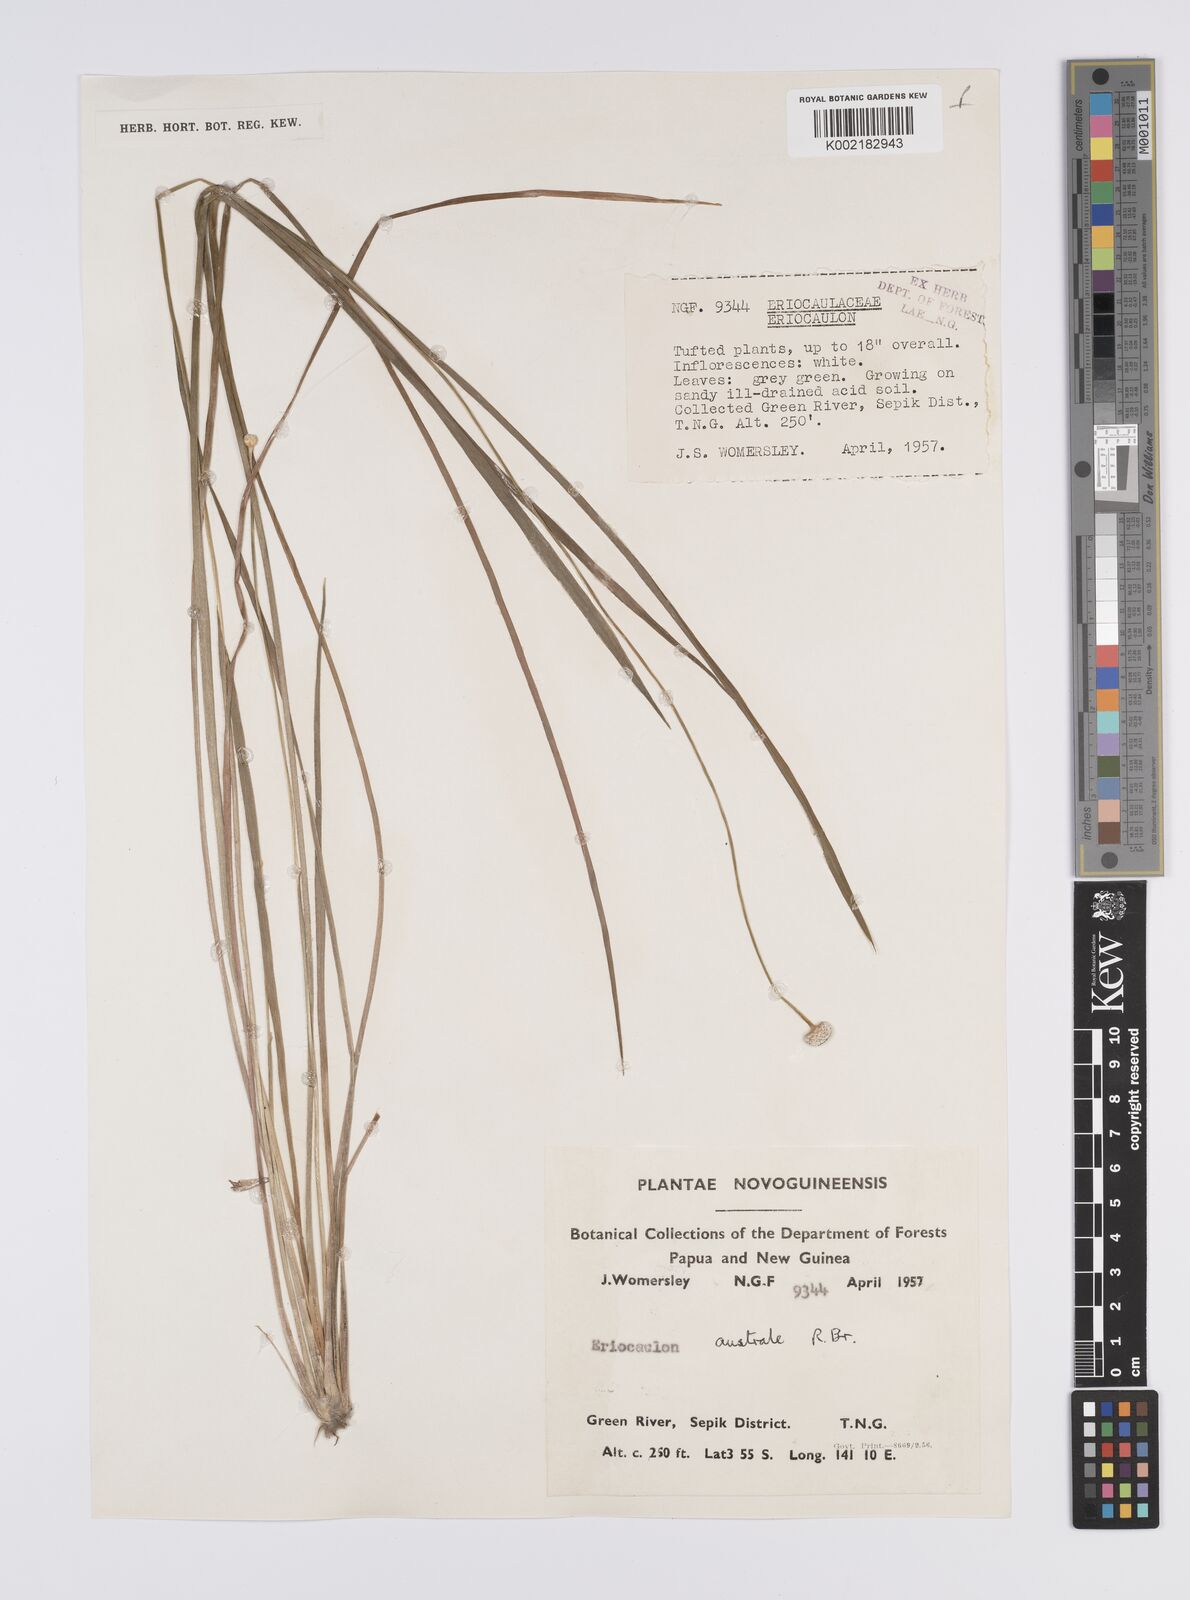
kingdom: Plantae
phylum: Tracheophyta
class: Liliopsida
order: Poales
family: Eriocaulaceae
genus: Eriocaulon
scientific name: Eriocaulon australe
